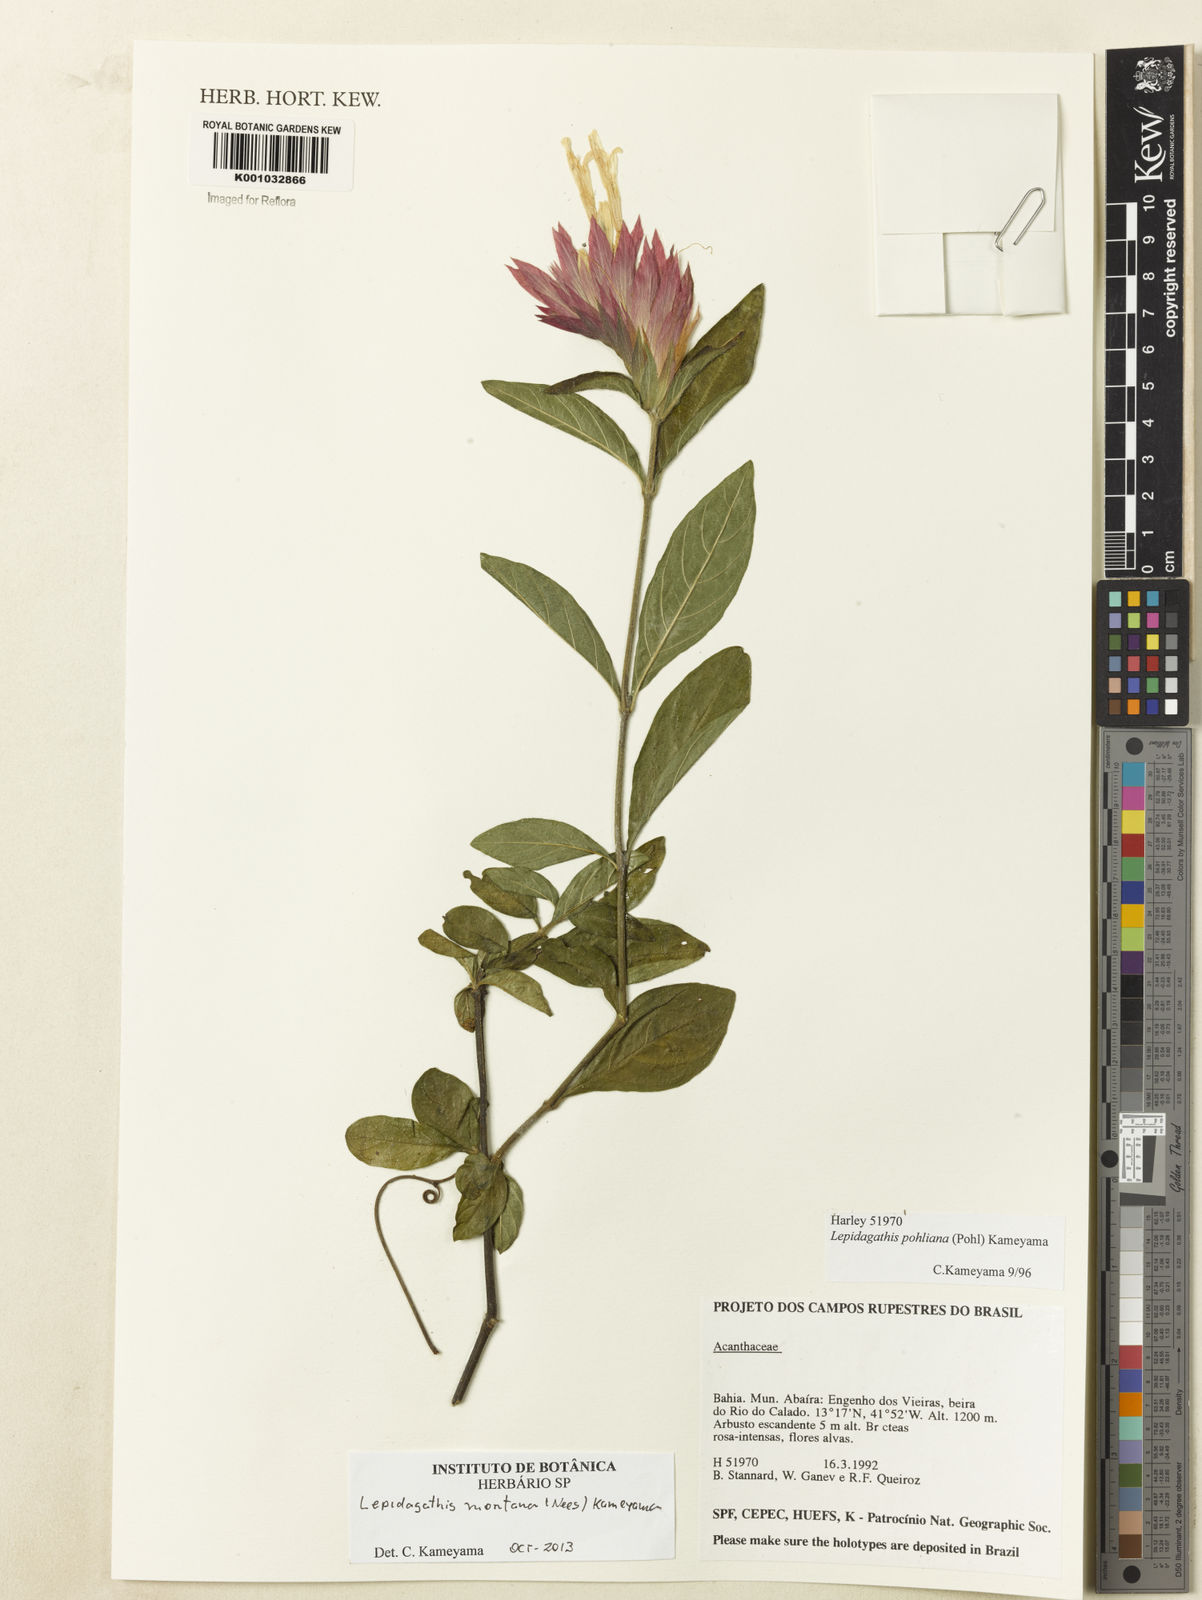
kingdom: Plantae
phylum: Tracheophyta
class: Magnoliopsida
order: Lamiales
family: Acanthaceae
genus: Lepidagathis
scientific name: Lepidagathis montana
